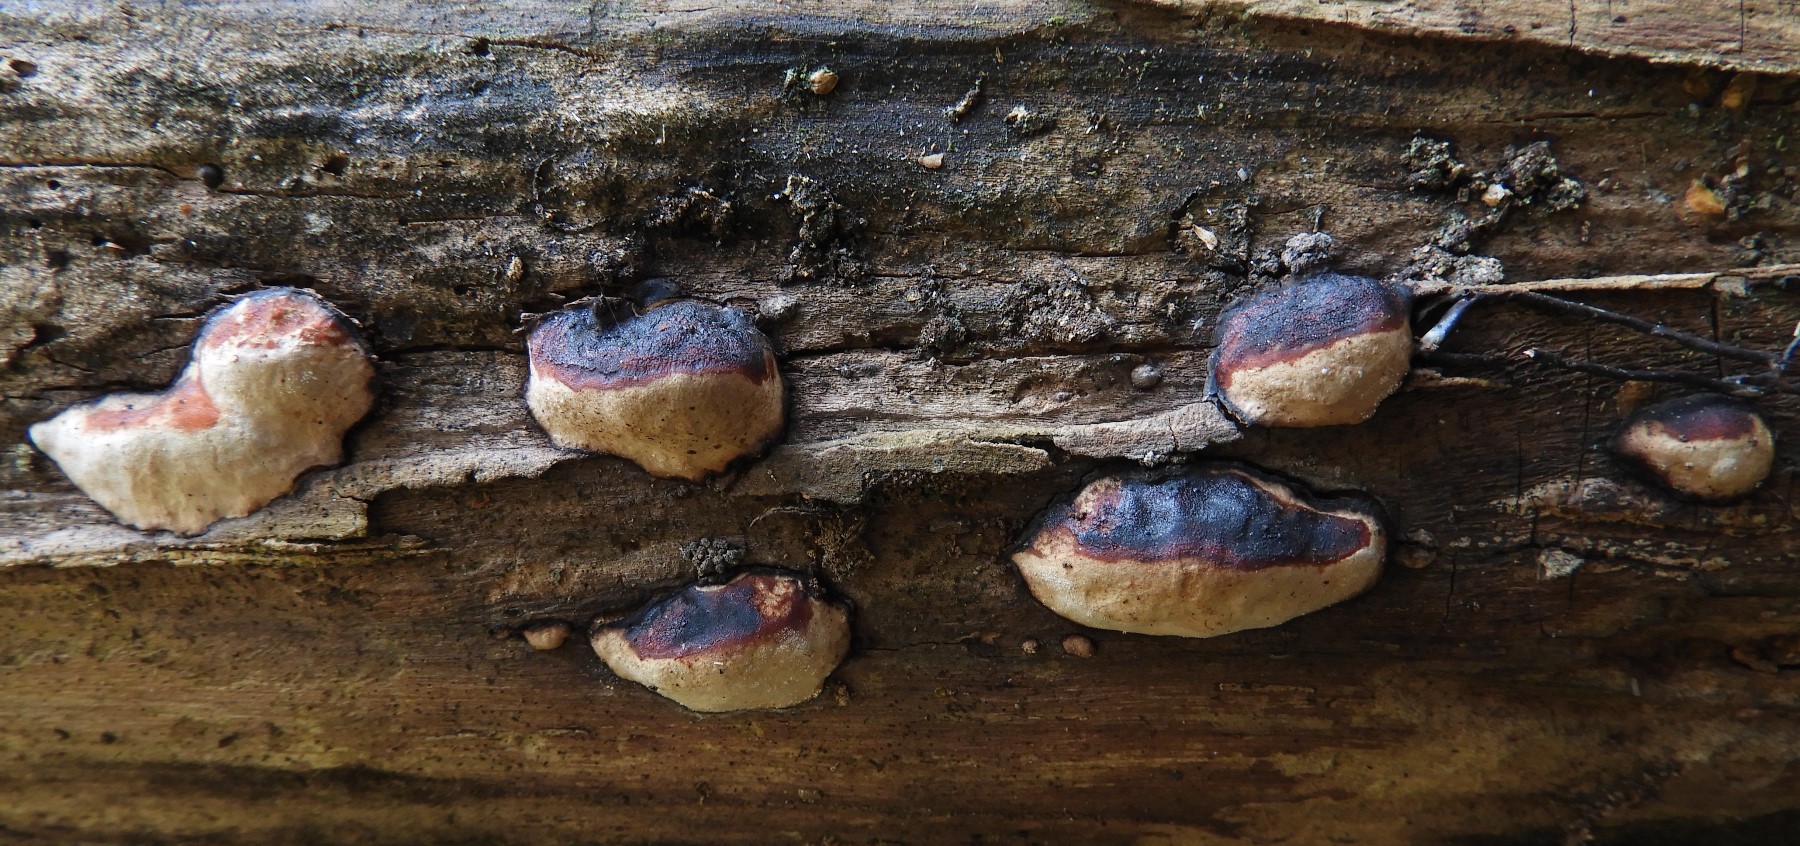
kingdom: Fungi
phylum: Basidiomycota
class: Agaricomycetes
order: Polyporales
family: Fomitopsidaceae
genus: Fomitopsis
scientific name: Fomitopsis pinicola
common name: randbæltet hovporesvamp
